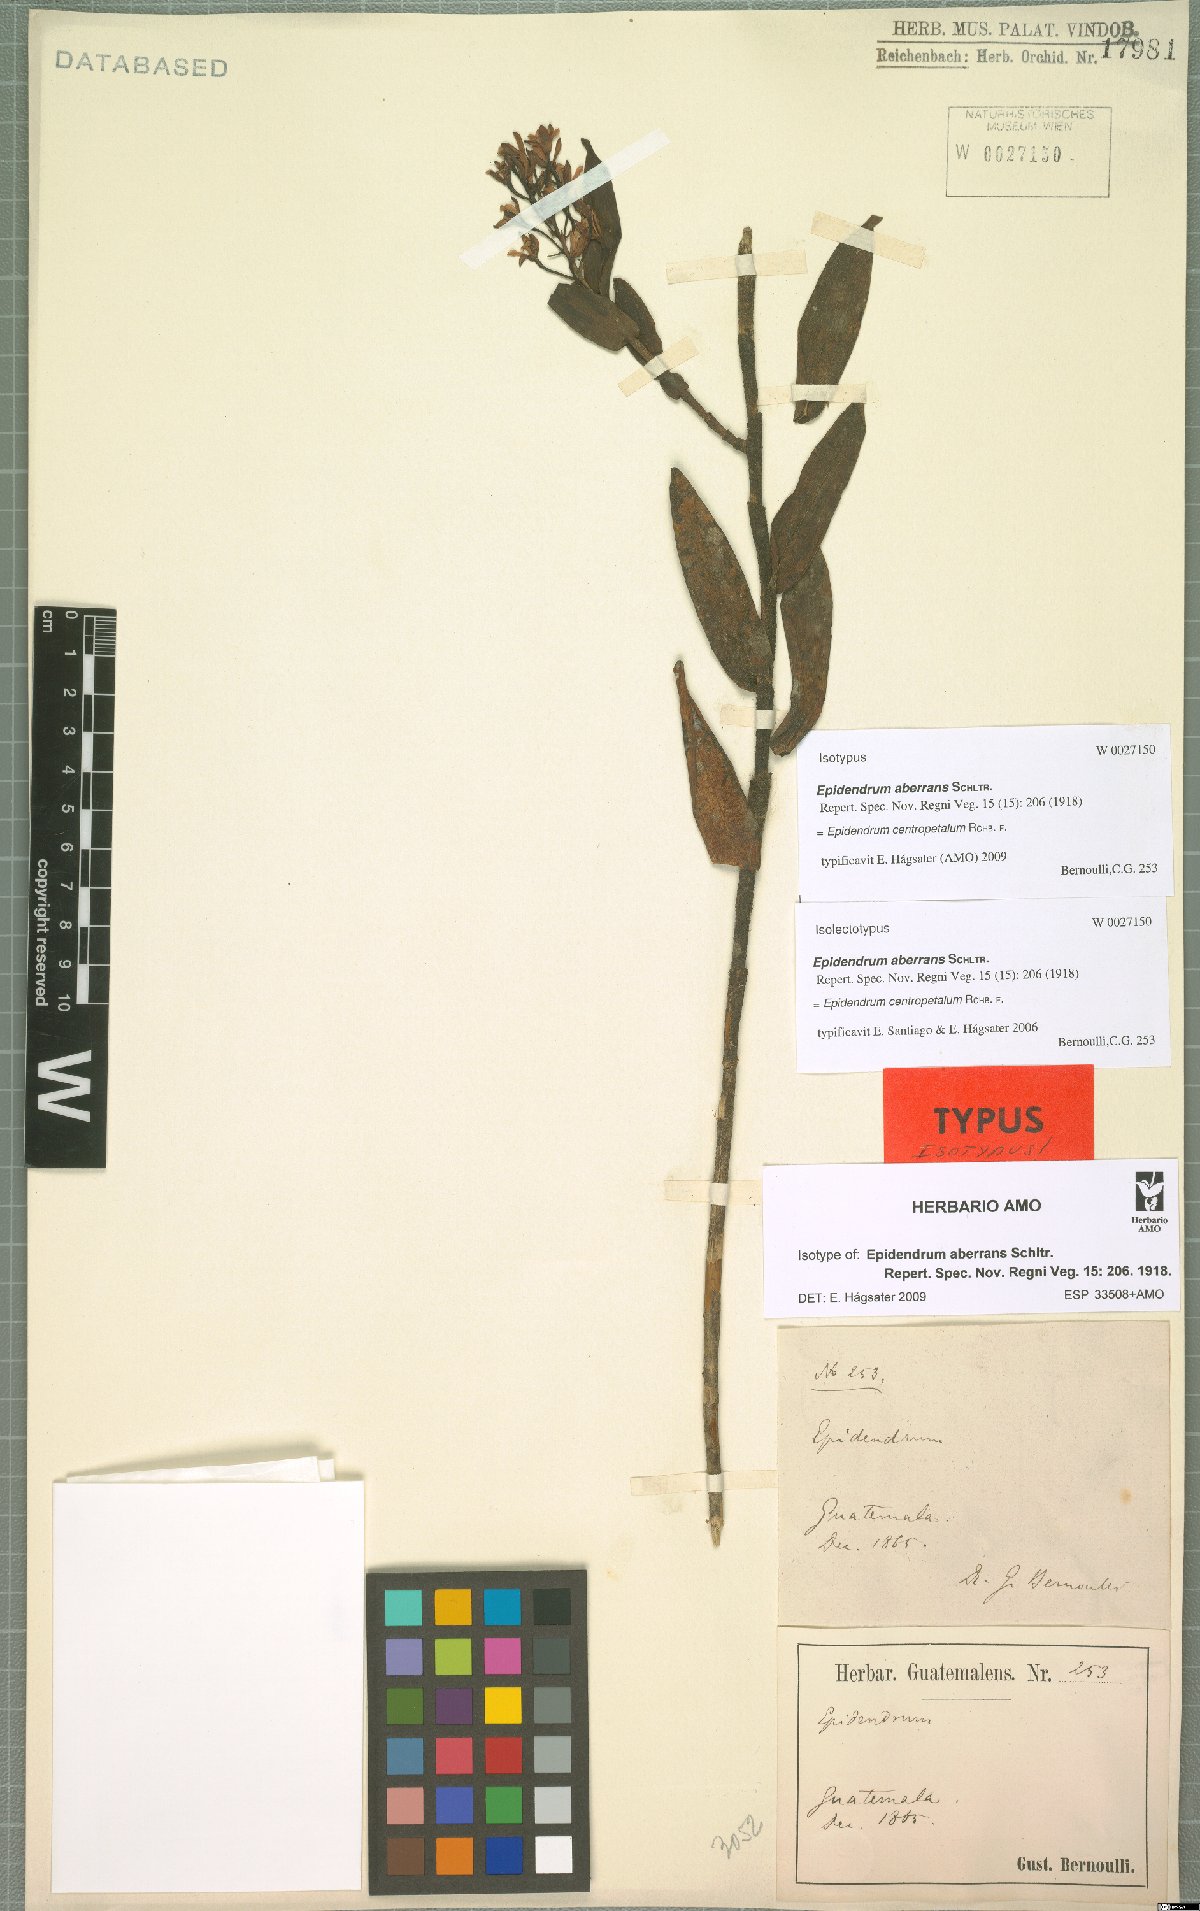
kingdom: Plantae
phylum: Tracheophyta
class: Liliopsida
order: Asparagales
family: Orchidaceae
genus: Epidendrum
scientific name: Epidendrum centropetalum
